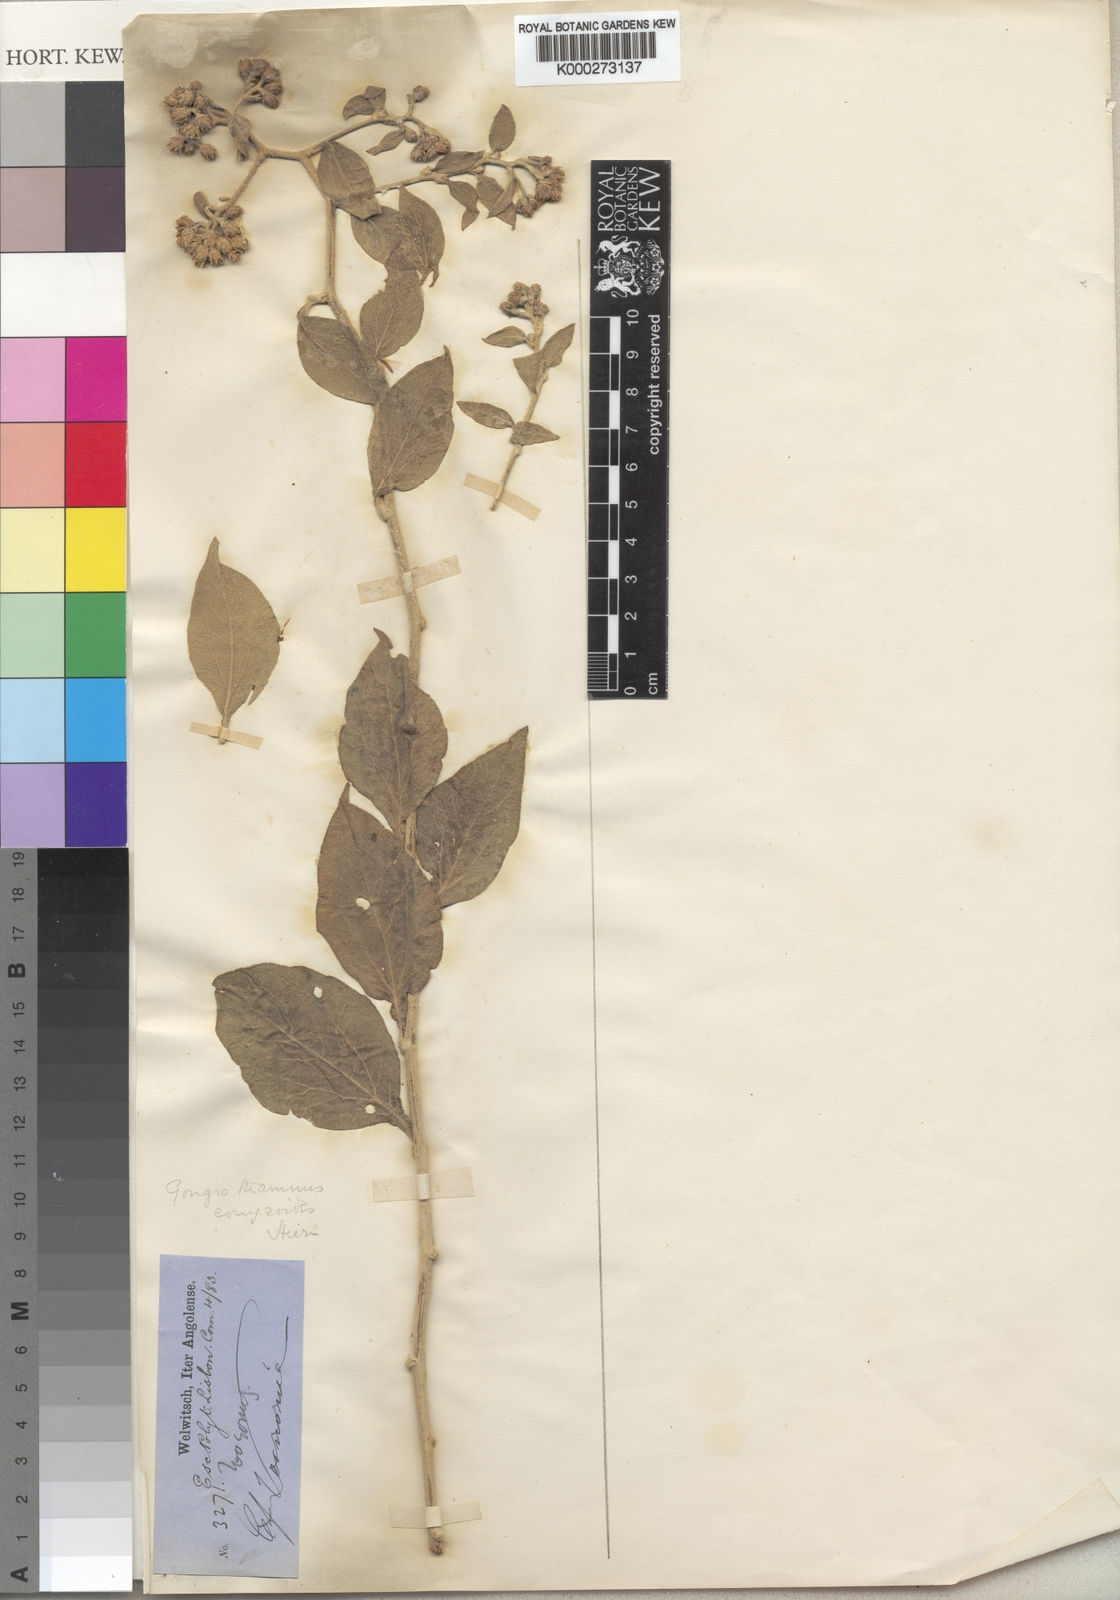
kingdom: Plantae
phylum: Tracheophyta
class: Magnoliopsida
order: Asterales
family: Asteraceae
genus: Distephanus
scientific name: Distephanus conyzoides
